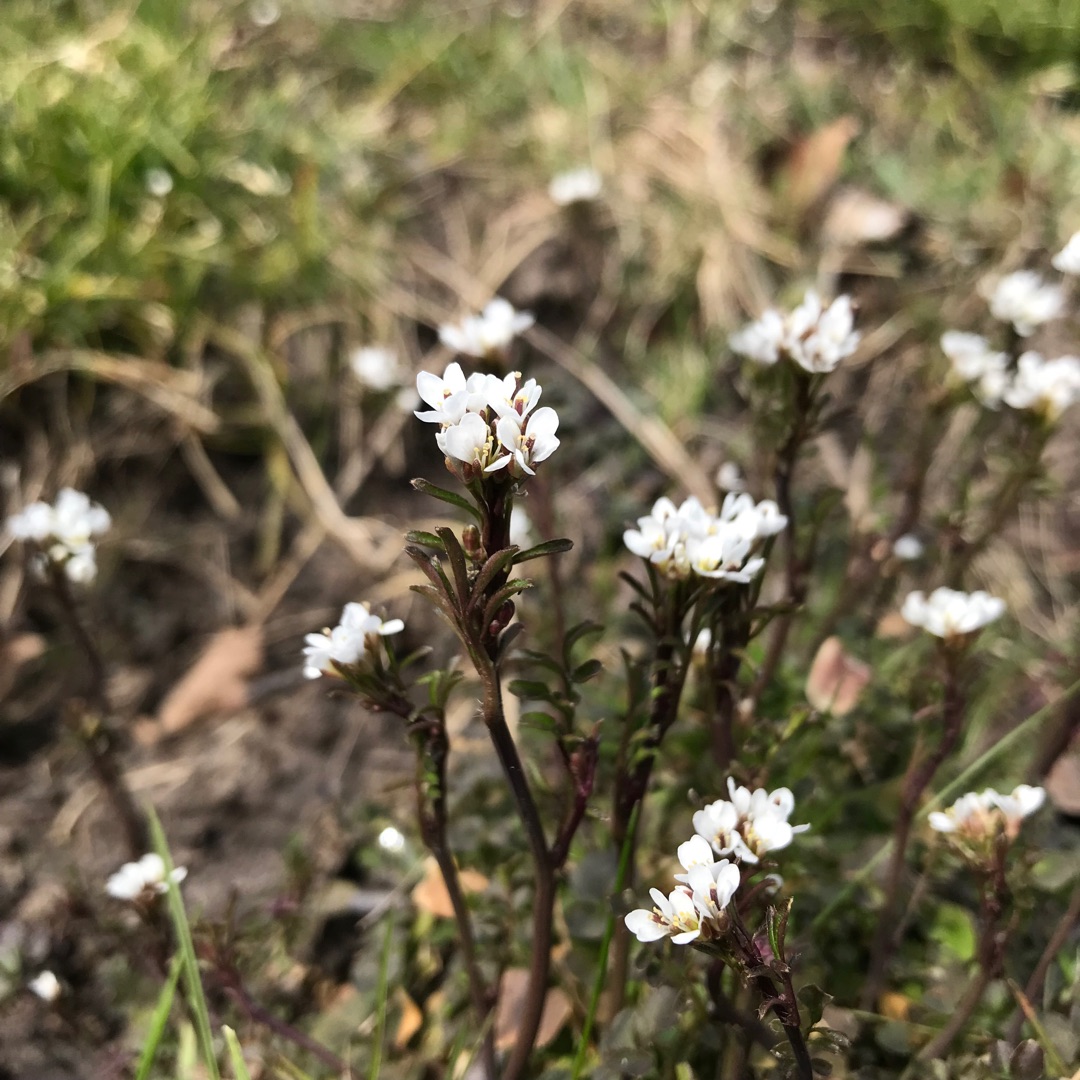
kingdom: Plantae
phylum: Tracheophyta
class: Magnoliopsida
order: Brassicales
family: Brassicaceae
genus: Cardamine
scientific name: Cardamine hirsuta
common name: Roset-springklap
